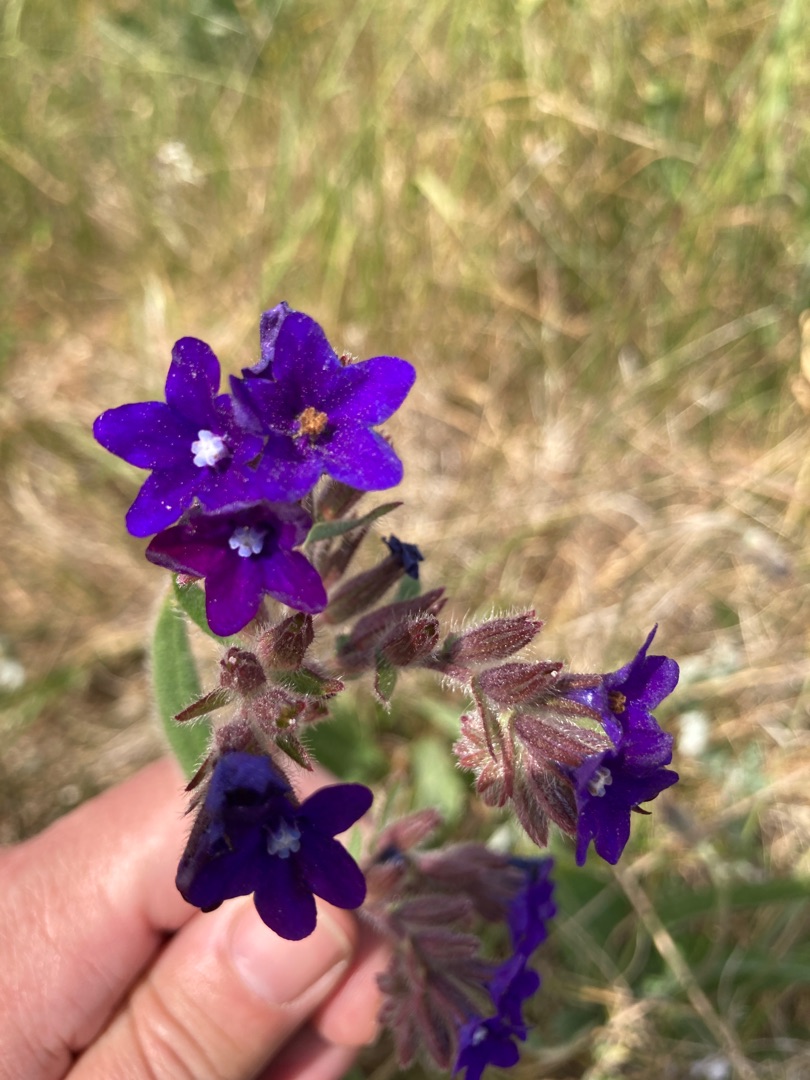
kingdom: Plantae
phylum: Tracheophyta
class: Magnoliopsida
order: Boraginales
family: Boraginaceae
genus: Anchusa
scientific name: Anchusa officinalis
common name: Læge-oksetunge
